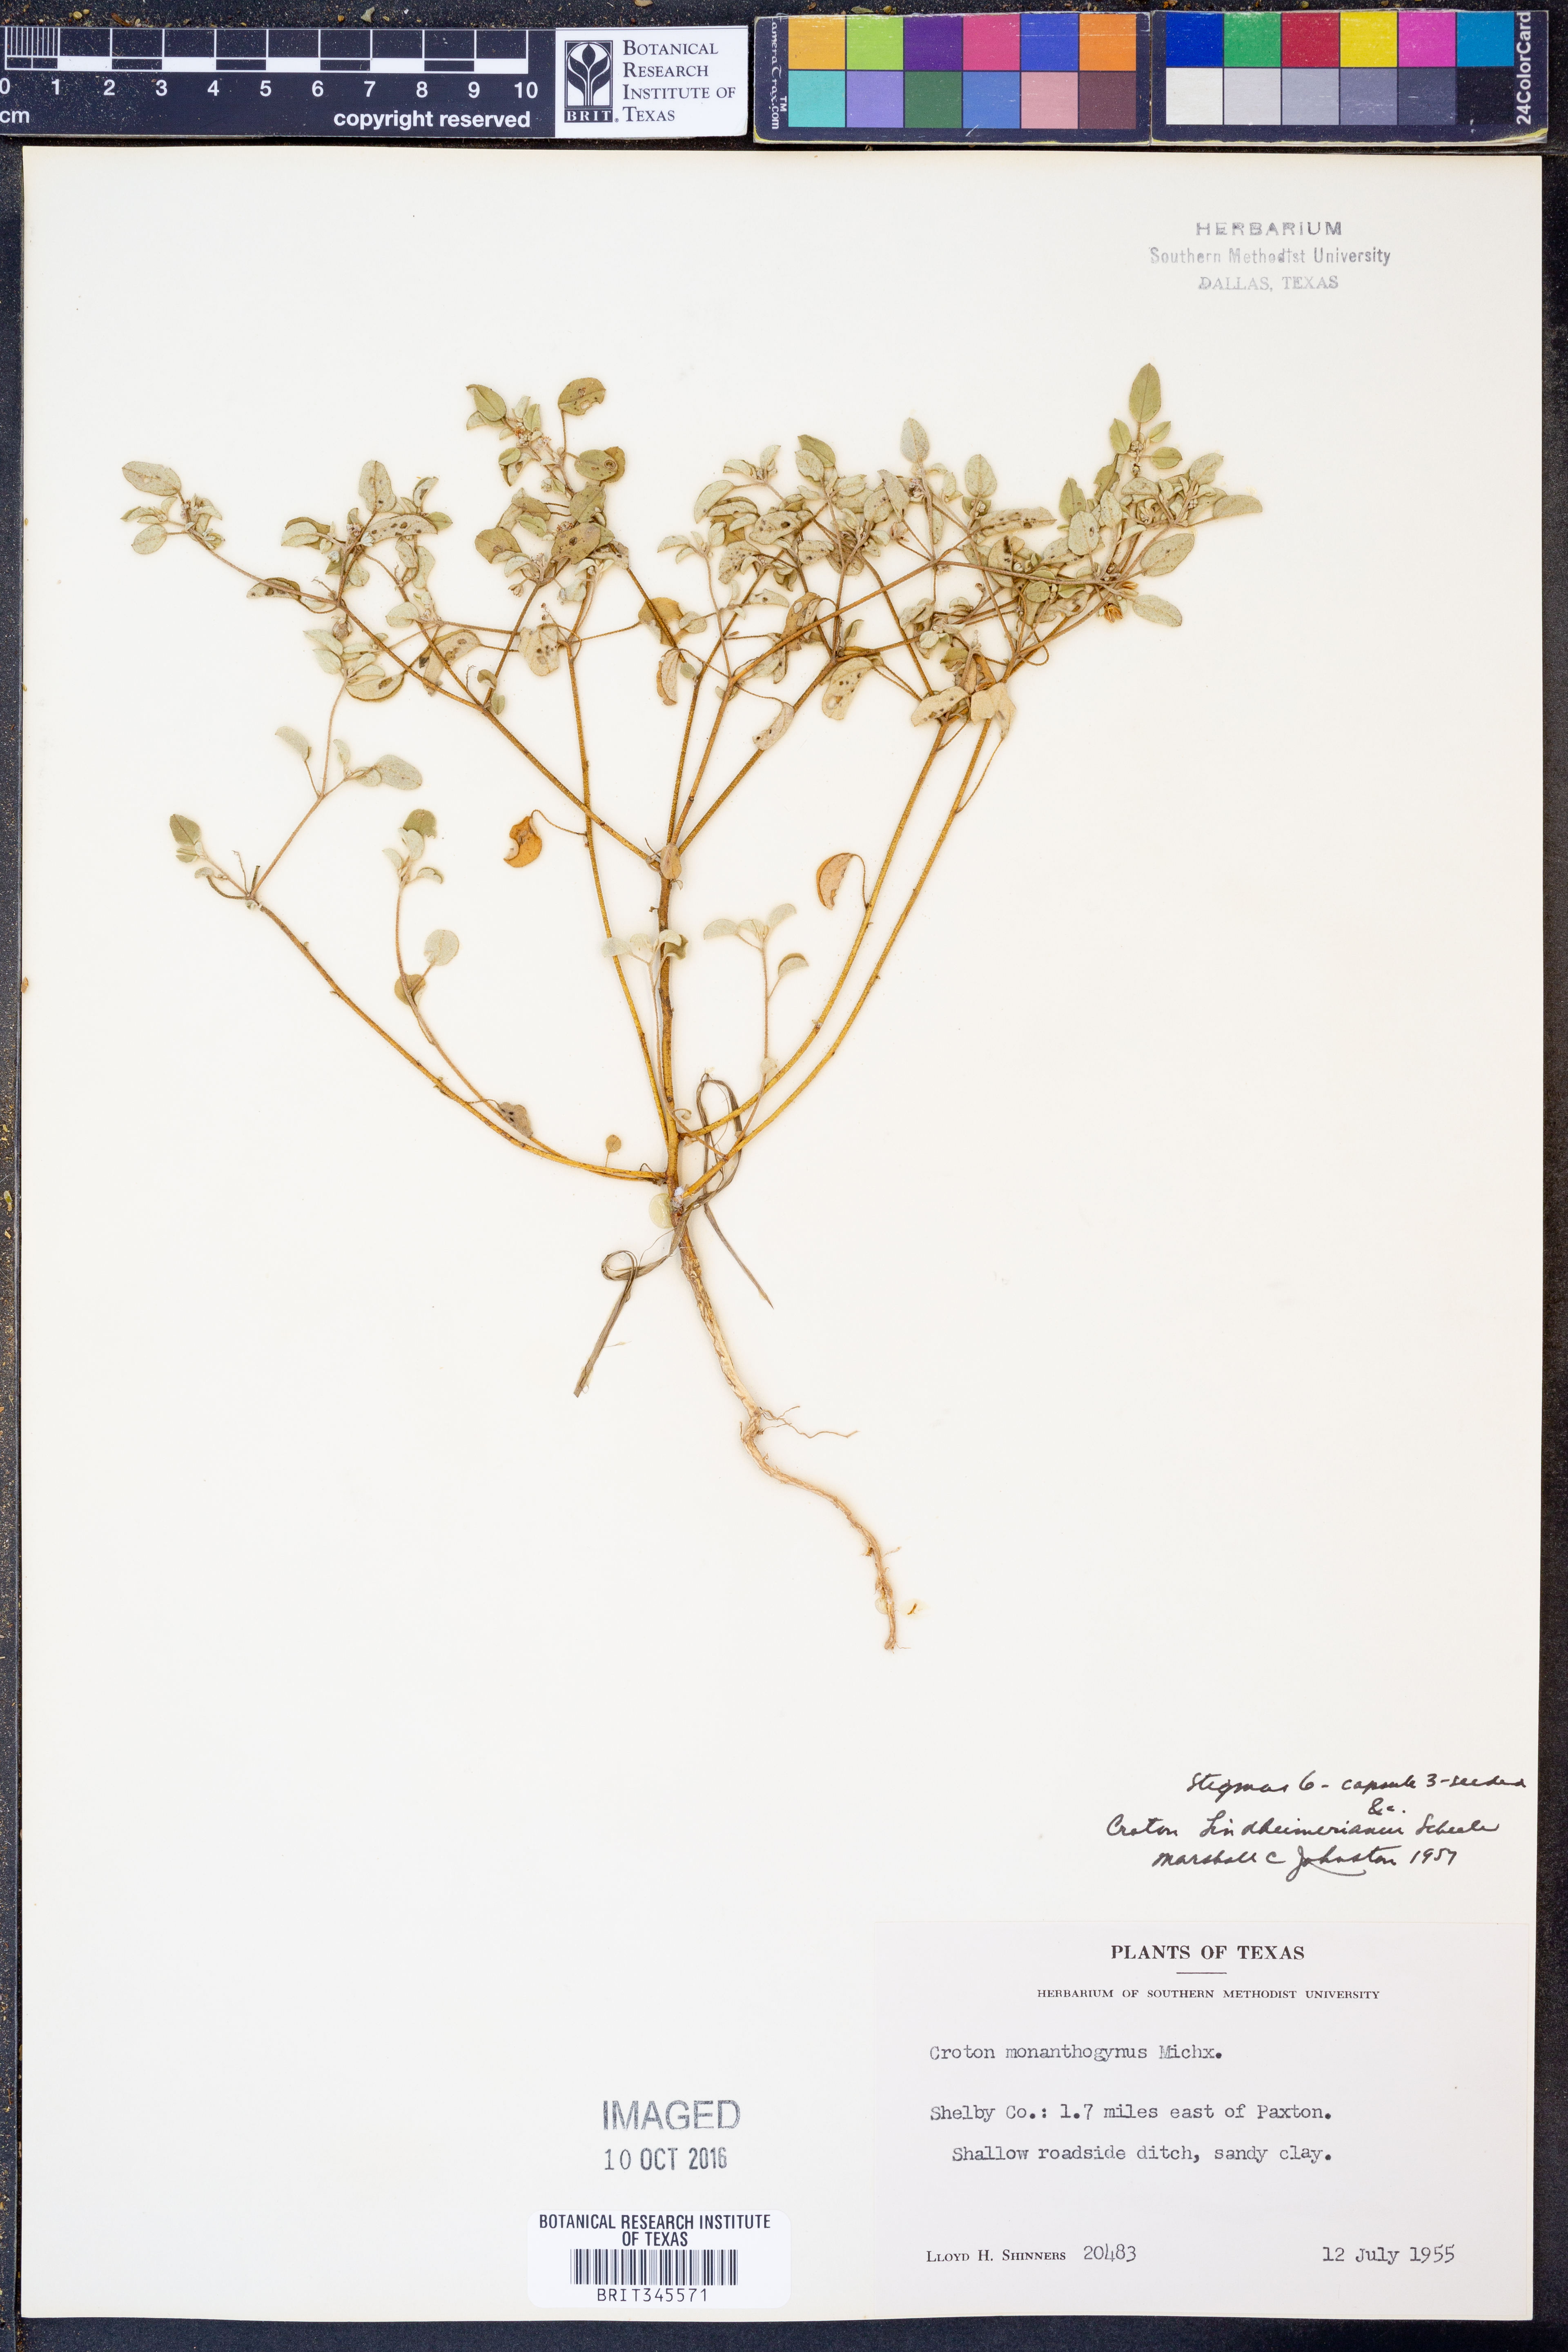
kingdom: Plantae
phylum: Tracheophyta
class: Magnoliopsida
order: Malpighiales
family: Euphorbiaceae
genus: Croton
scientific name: Croton lindheimerianus
